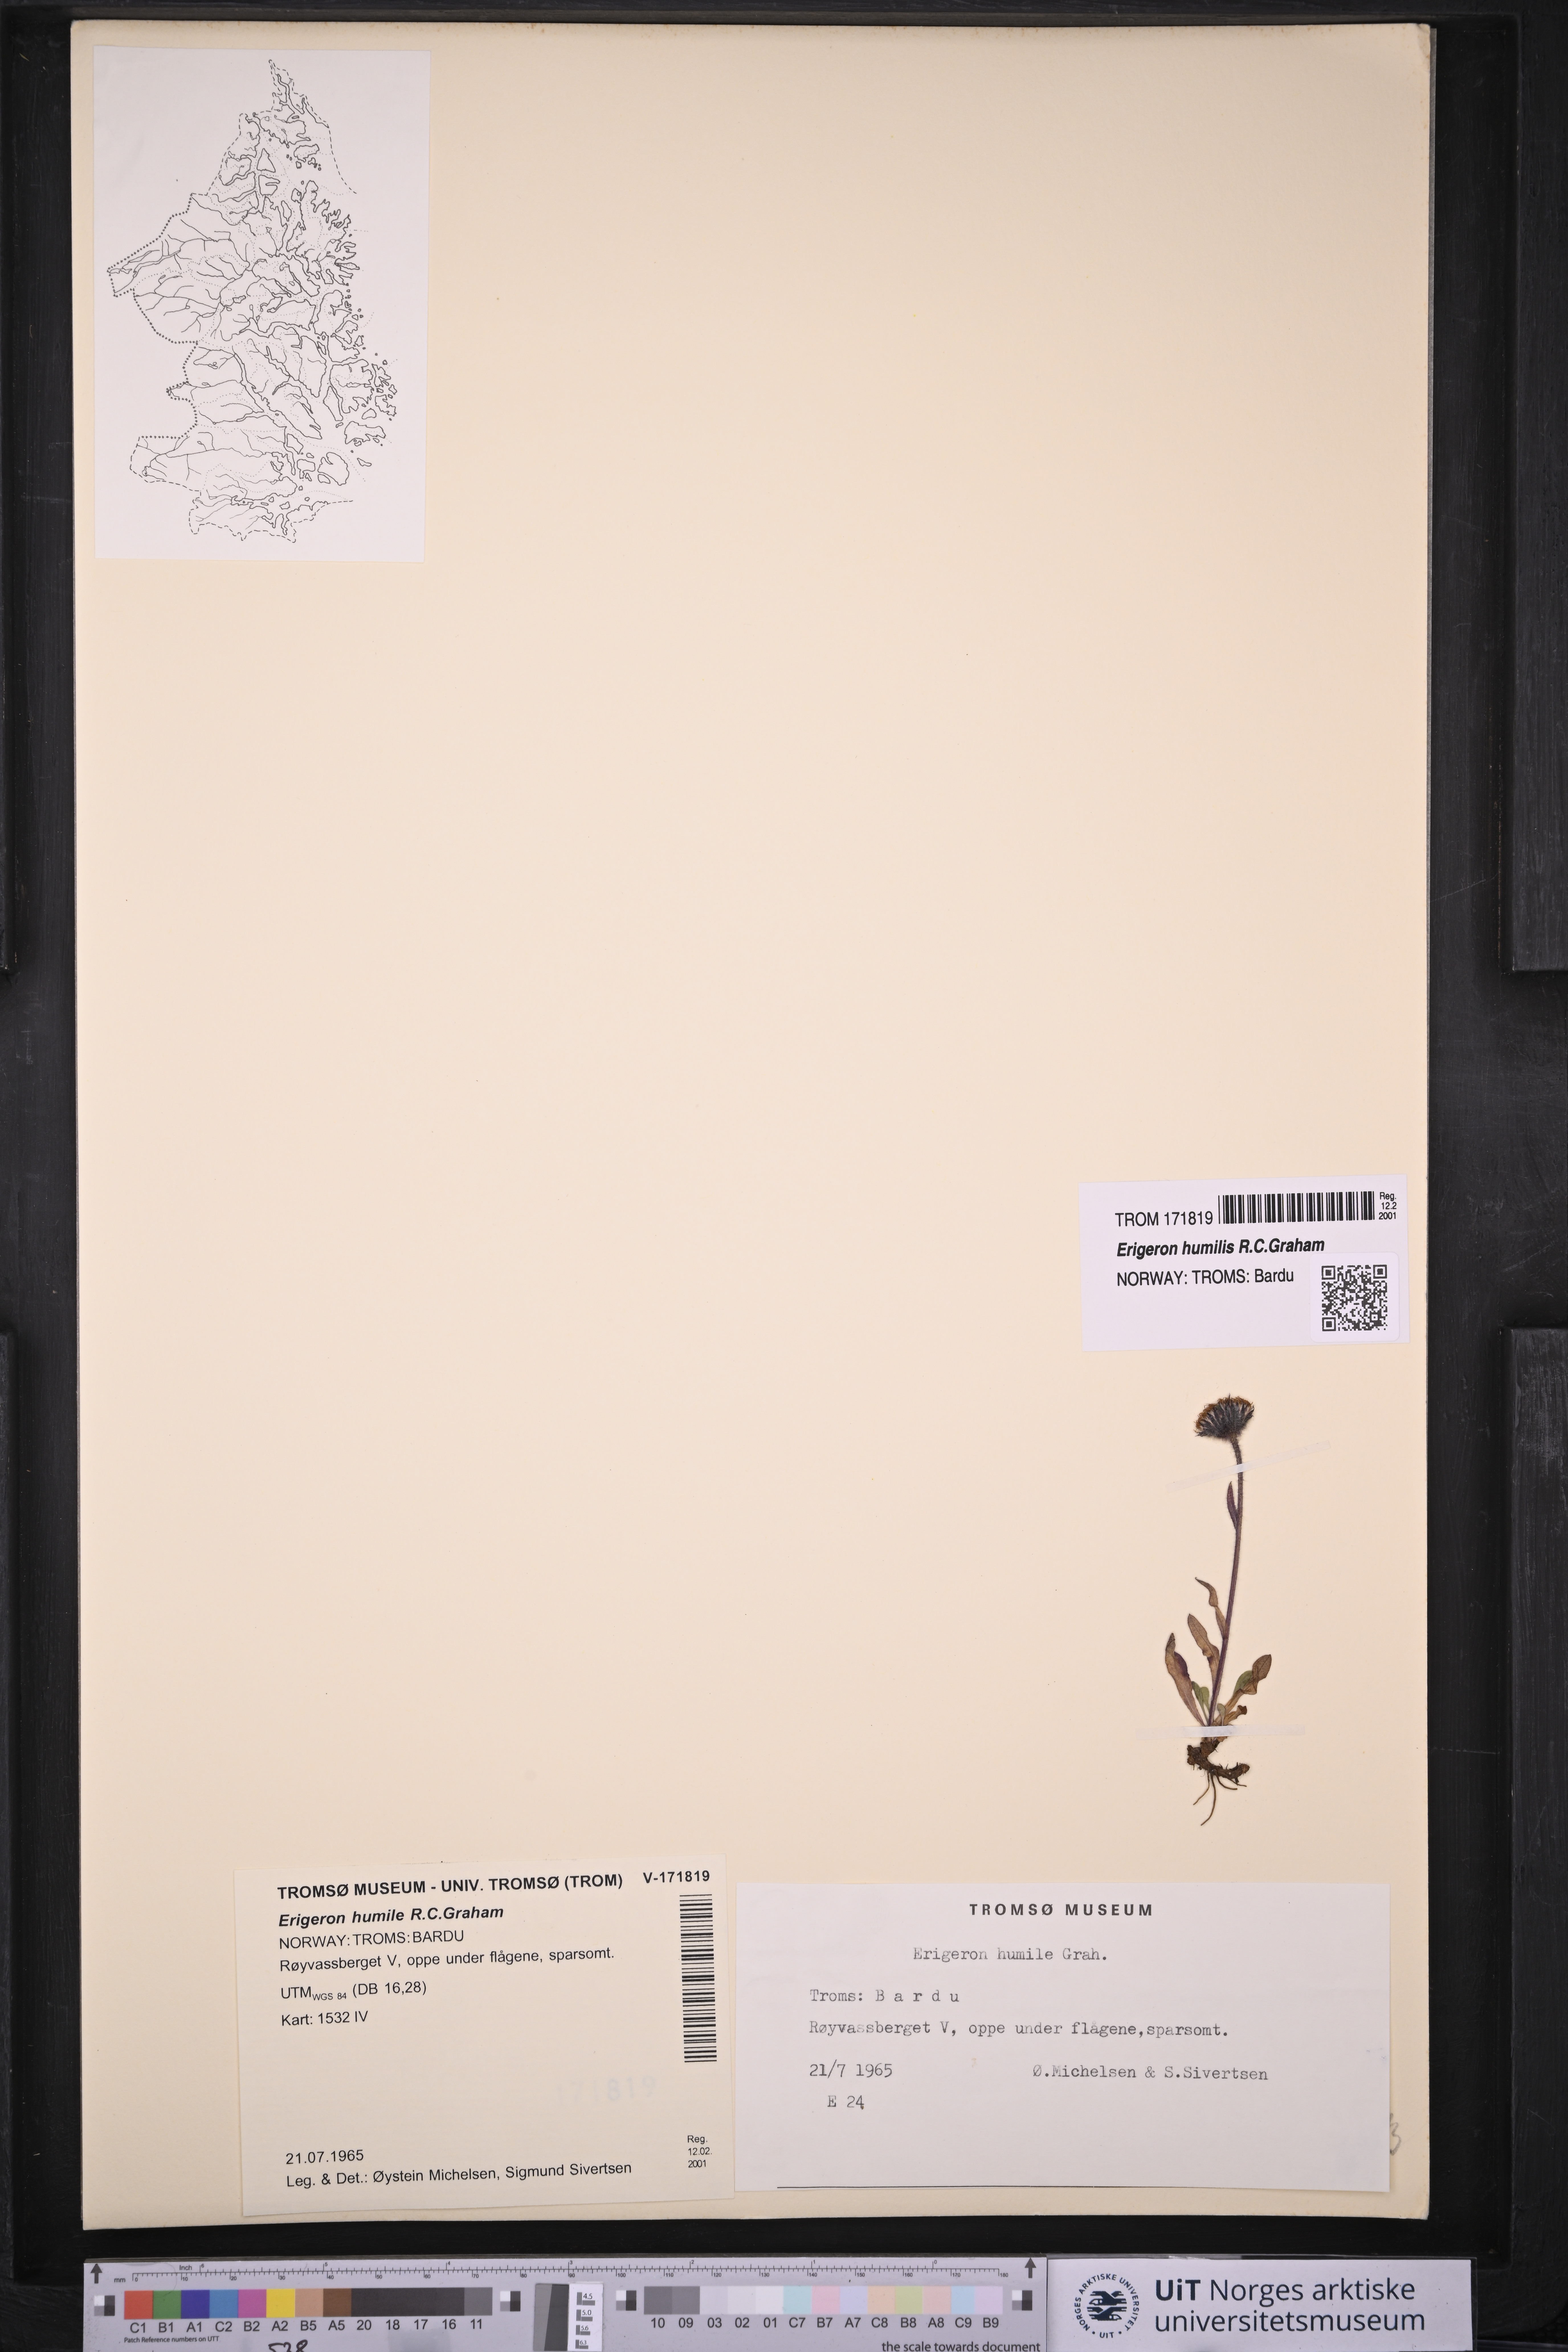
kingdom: Plantae
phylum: Tracheophyta
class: Magnoliopsida
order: Asterales
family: Asteraceae
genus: Erigeron
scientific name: Erigeron humilis
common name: Arctic-alpine fleabane
